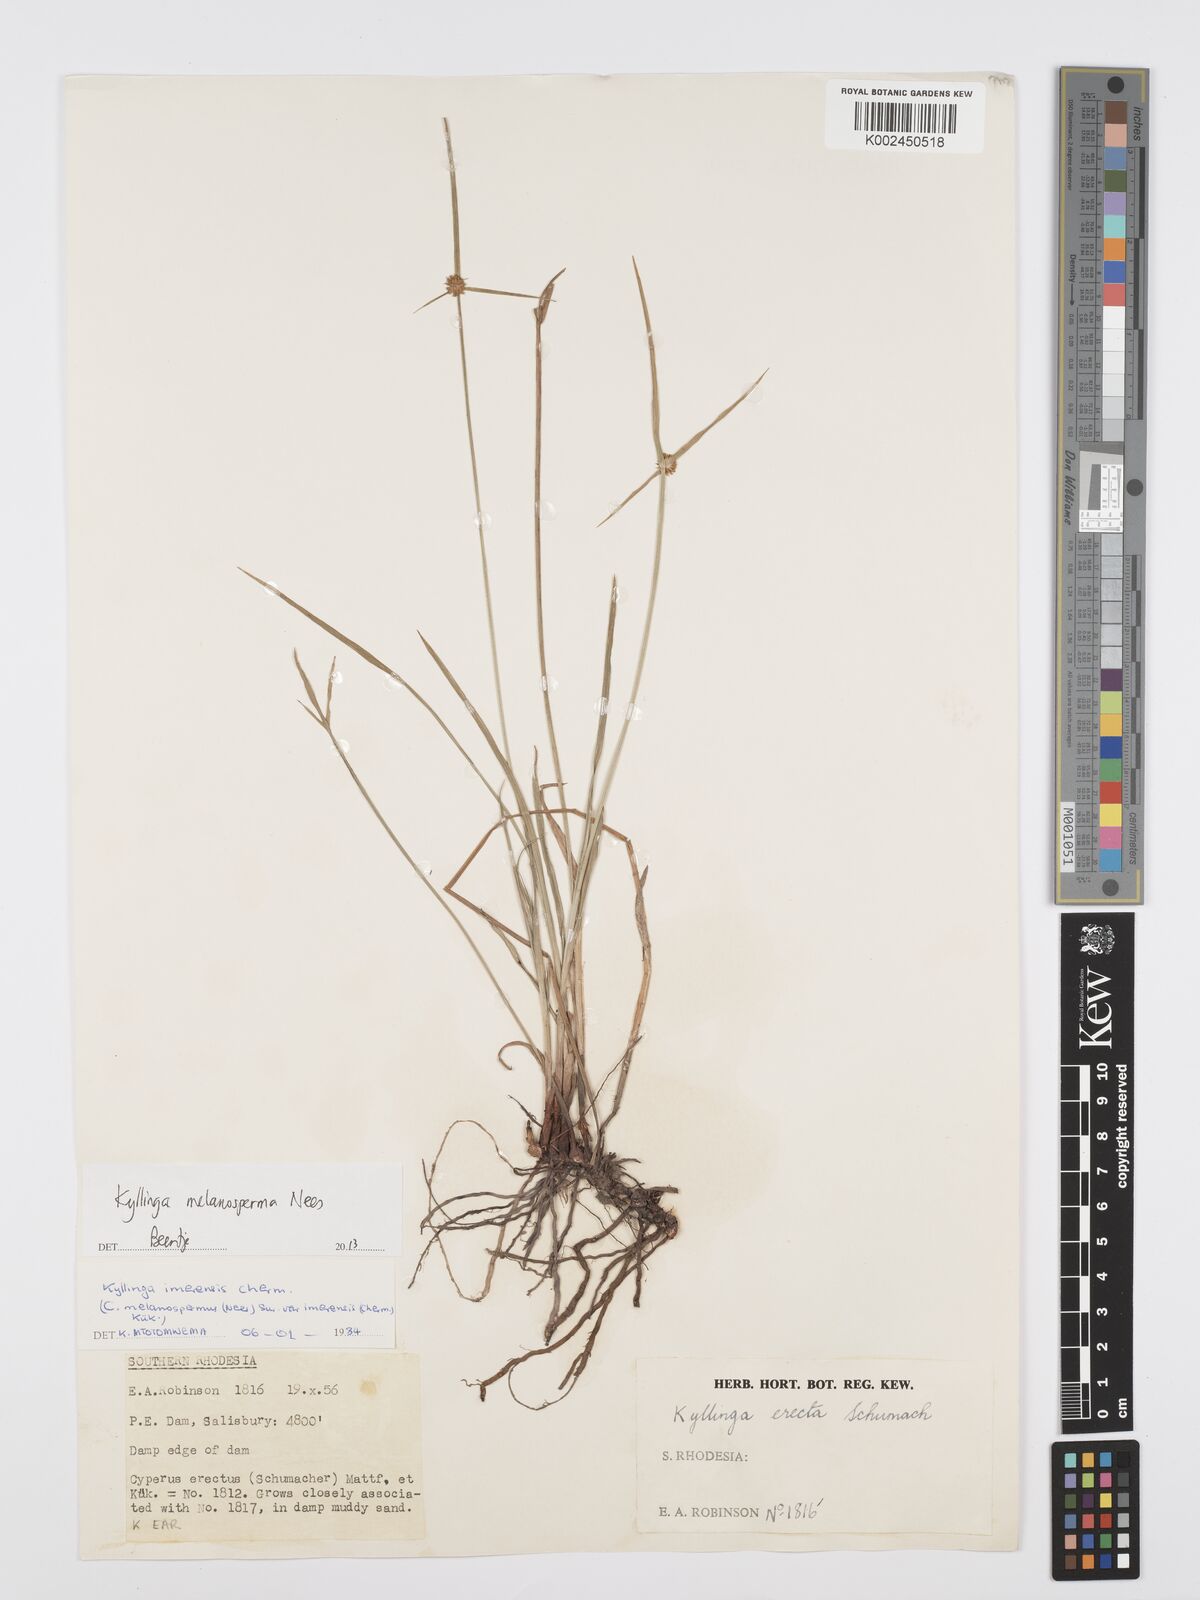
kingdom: Plantae
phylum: Tracheophyta
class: Liliopsida
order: Poales
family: Cyperaceae
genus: Cyperus
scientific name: Cyperus melanospermus
